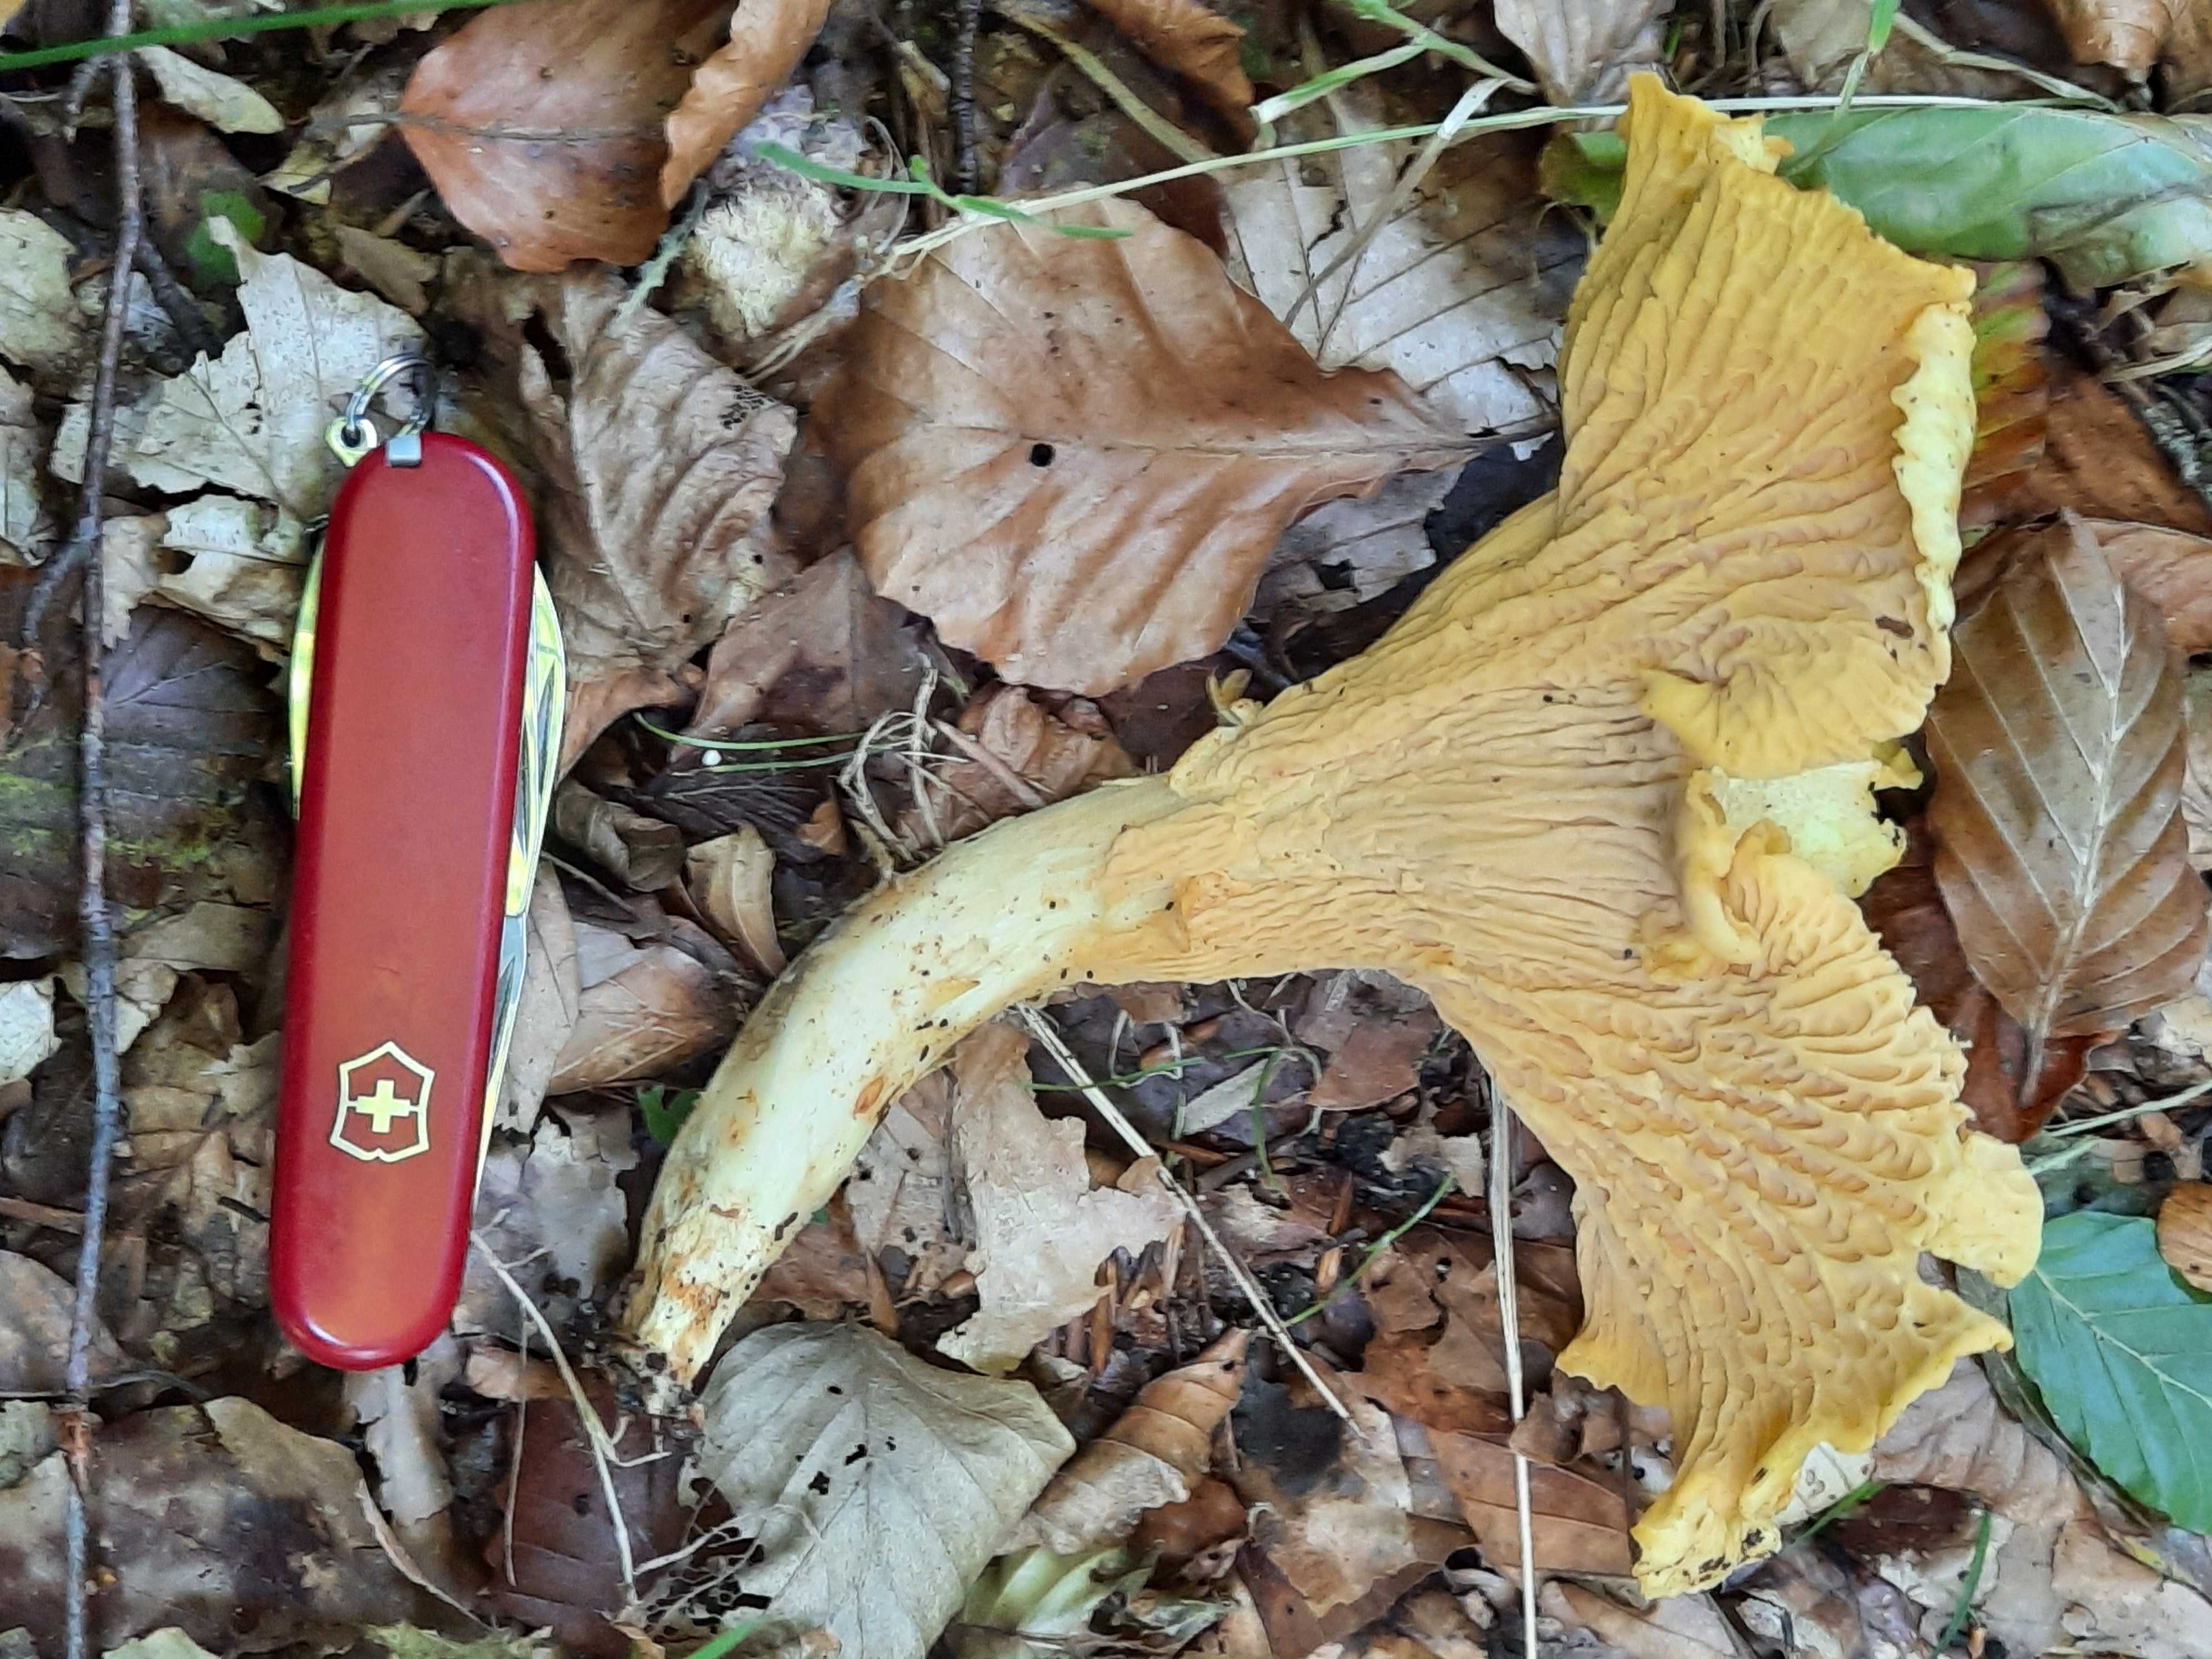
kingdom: Fungi
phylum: Basidiomycota
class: Agaricomycetes
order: Cantharellales
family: Hydnaceae
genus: Cantharellus
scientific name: Cantharellus pallens
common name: bleg kantarel
